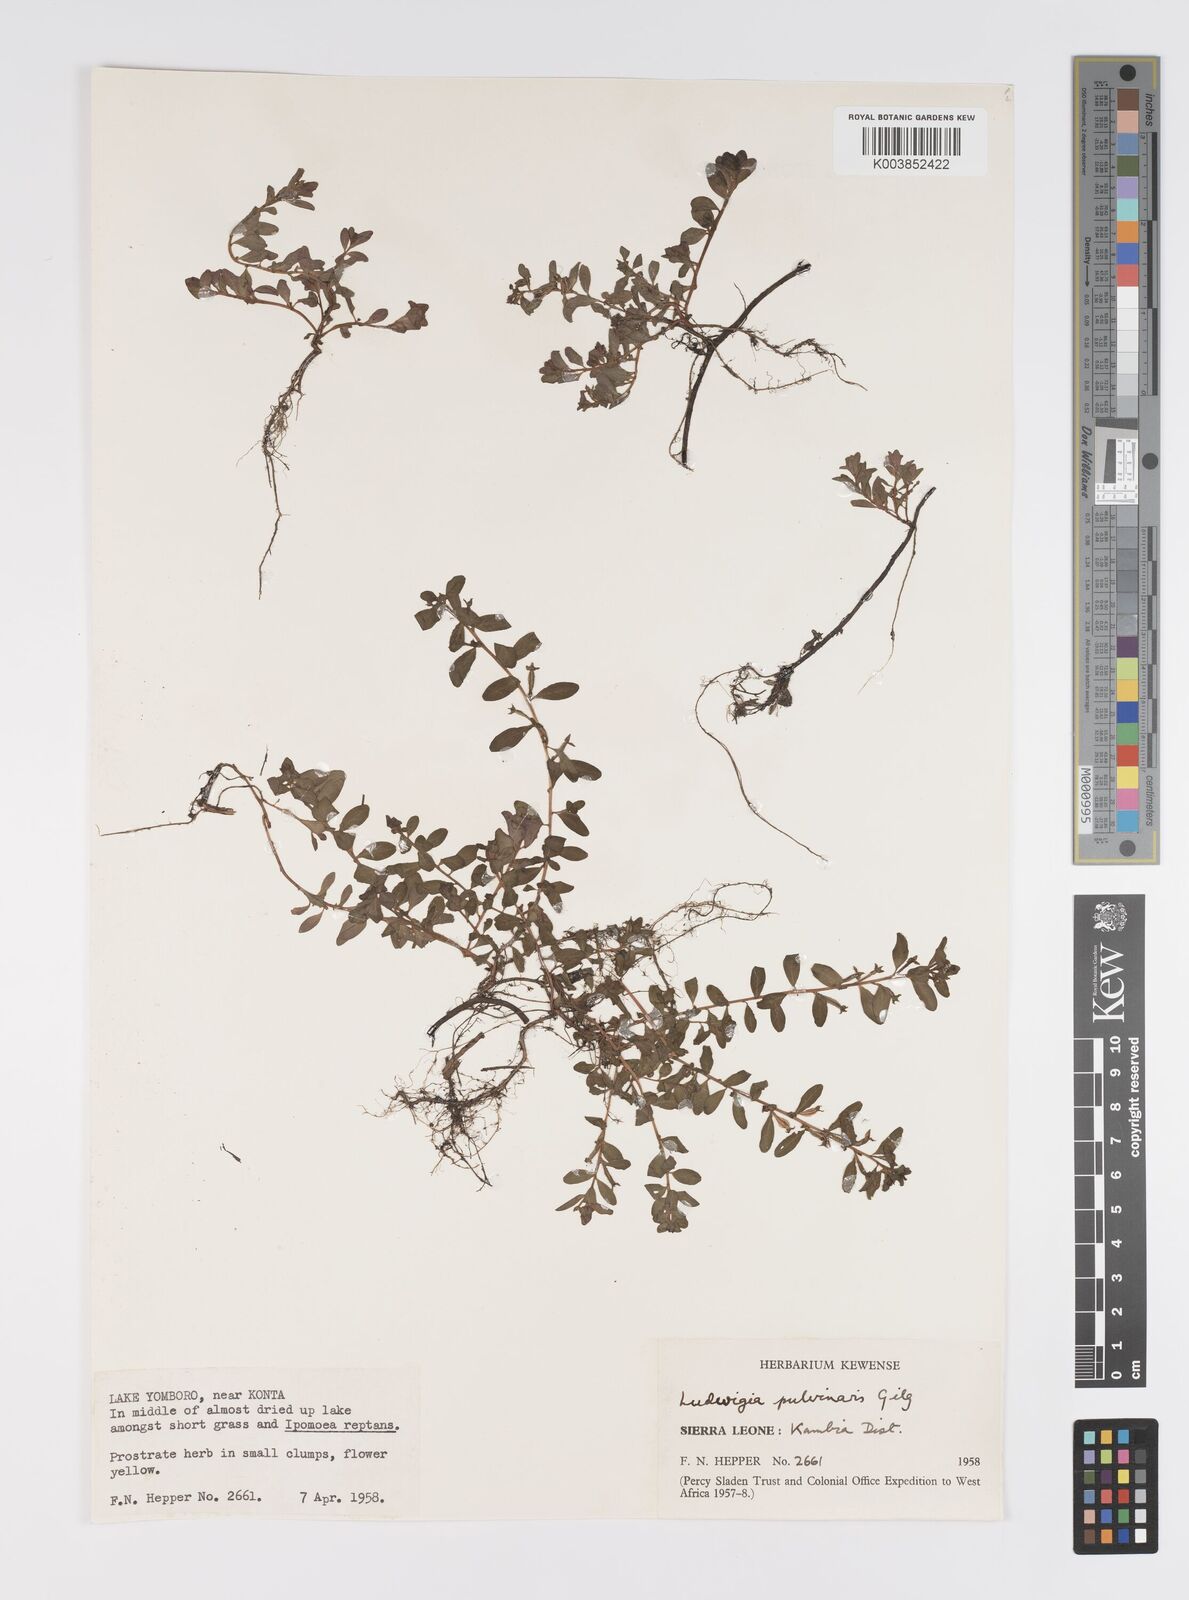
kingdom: Plantae
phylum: Tracheophyta
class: Magnoliopsida
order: Myrtales
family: Onagraceae
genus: Ludwigia
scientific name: Ludwigia senegalensis
